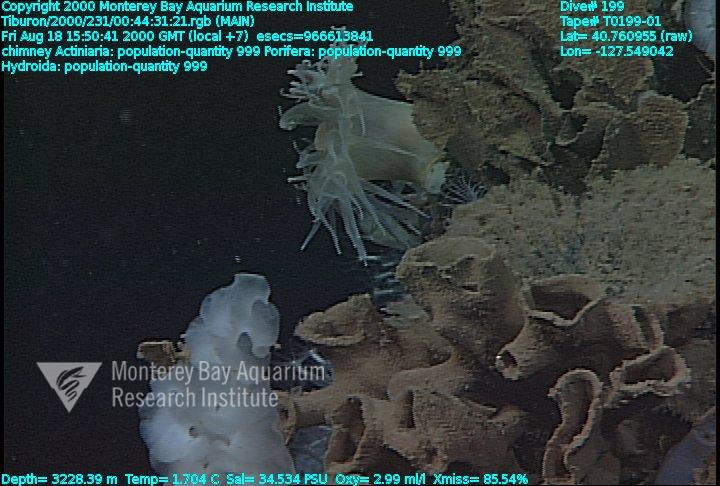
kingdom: Animalia
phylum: Porifera
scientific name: Porifera
